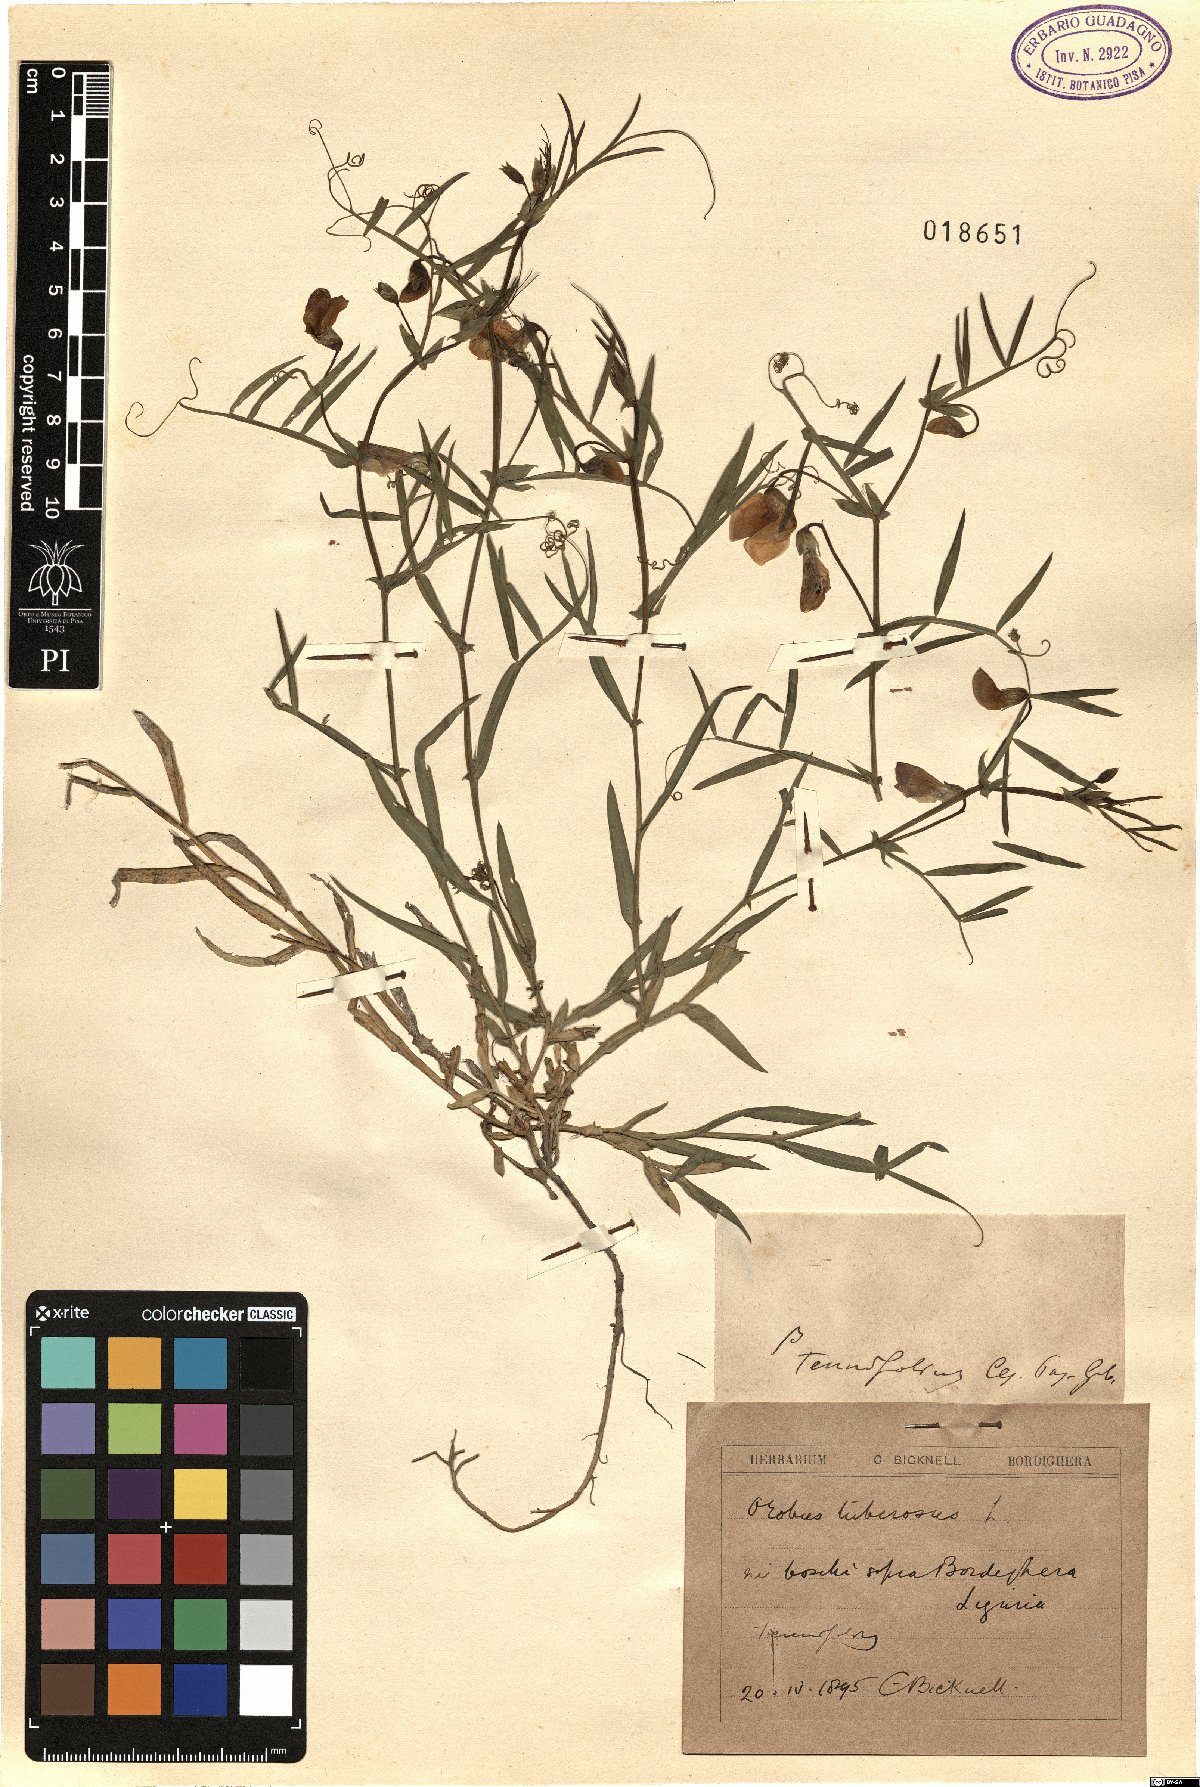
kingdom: Plantae
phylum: Tracheophyta
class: Magnoliopsida
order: Fabales
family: Fabaceae
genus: Lathyrus
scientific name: Lathyrus linifolius
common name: Bitter-vetch
